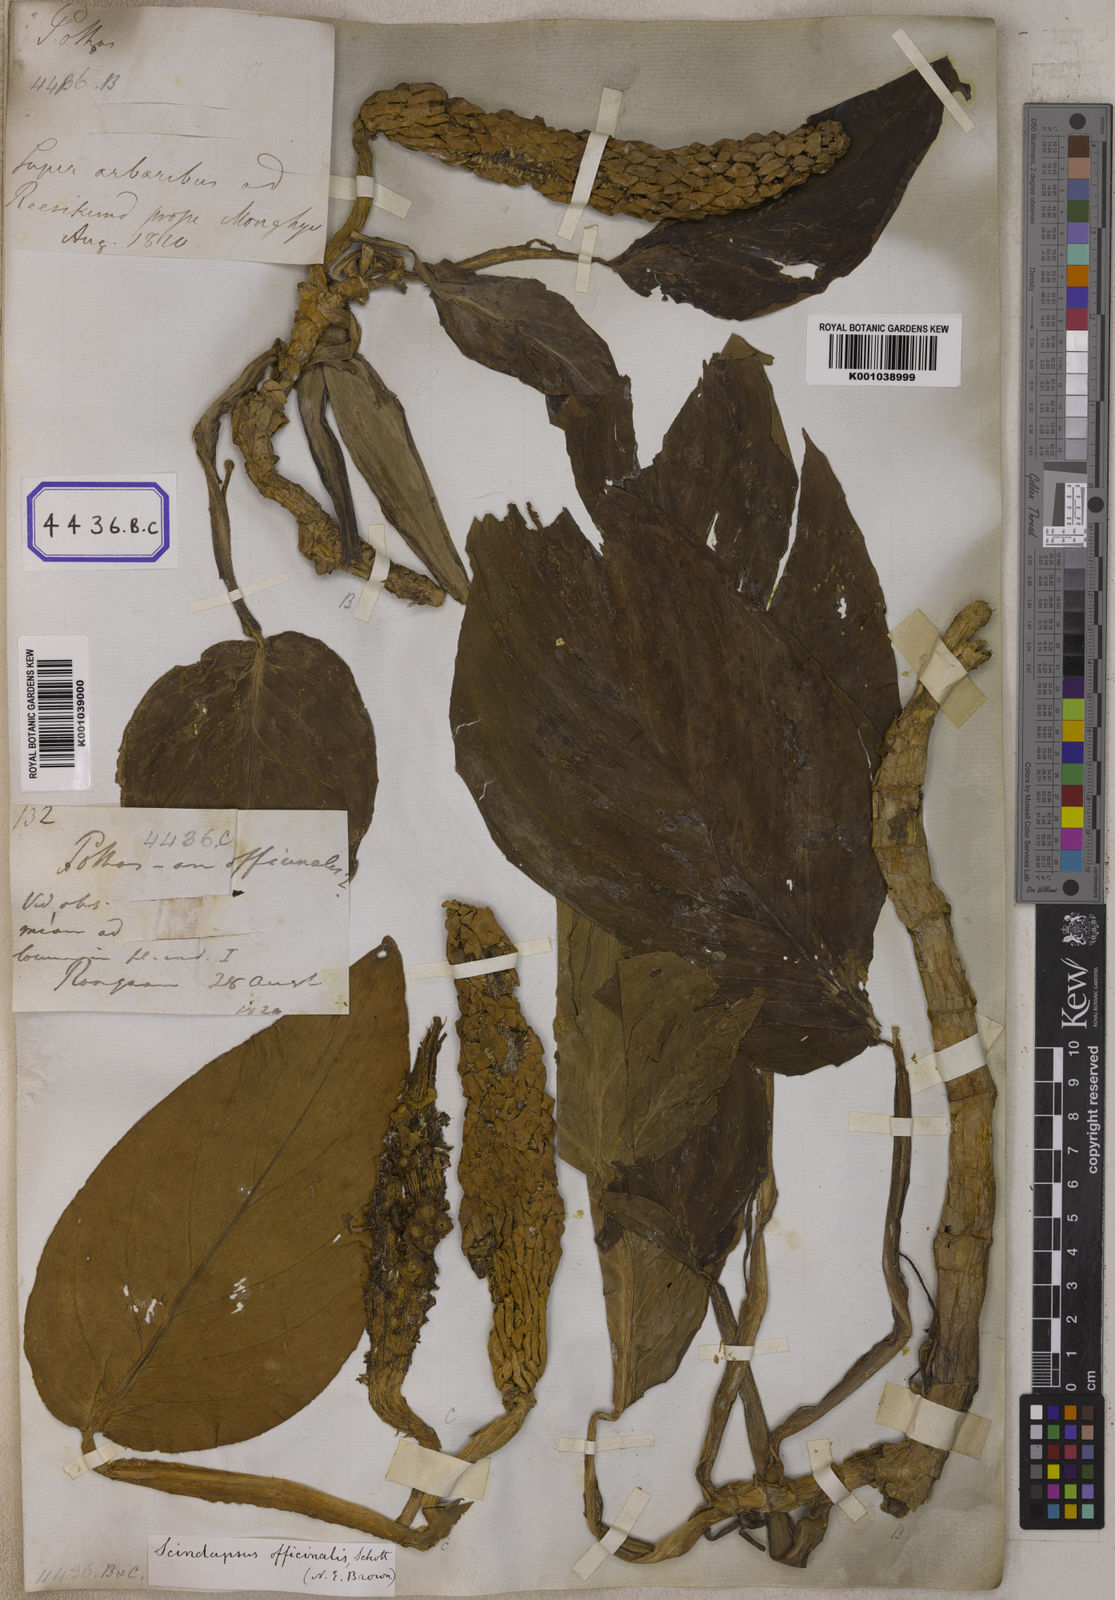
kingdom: Plantae
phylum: Tracheophyta
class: Liliopsida
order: Alismatales
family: Araceae
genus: Scindapsus
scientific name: Scindapsus officinalis
